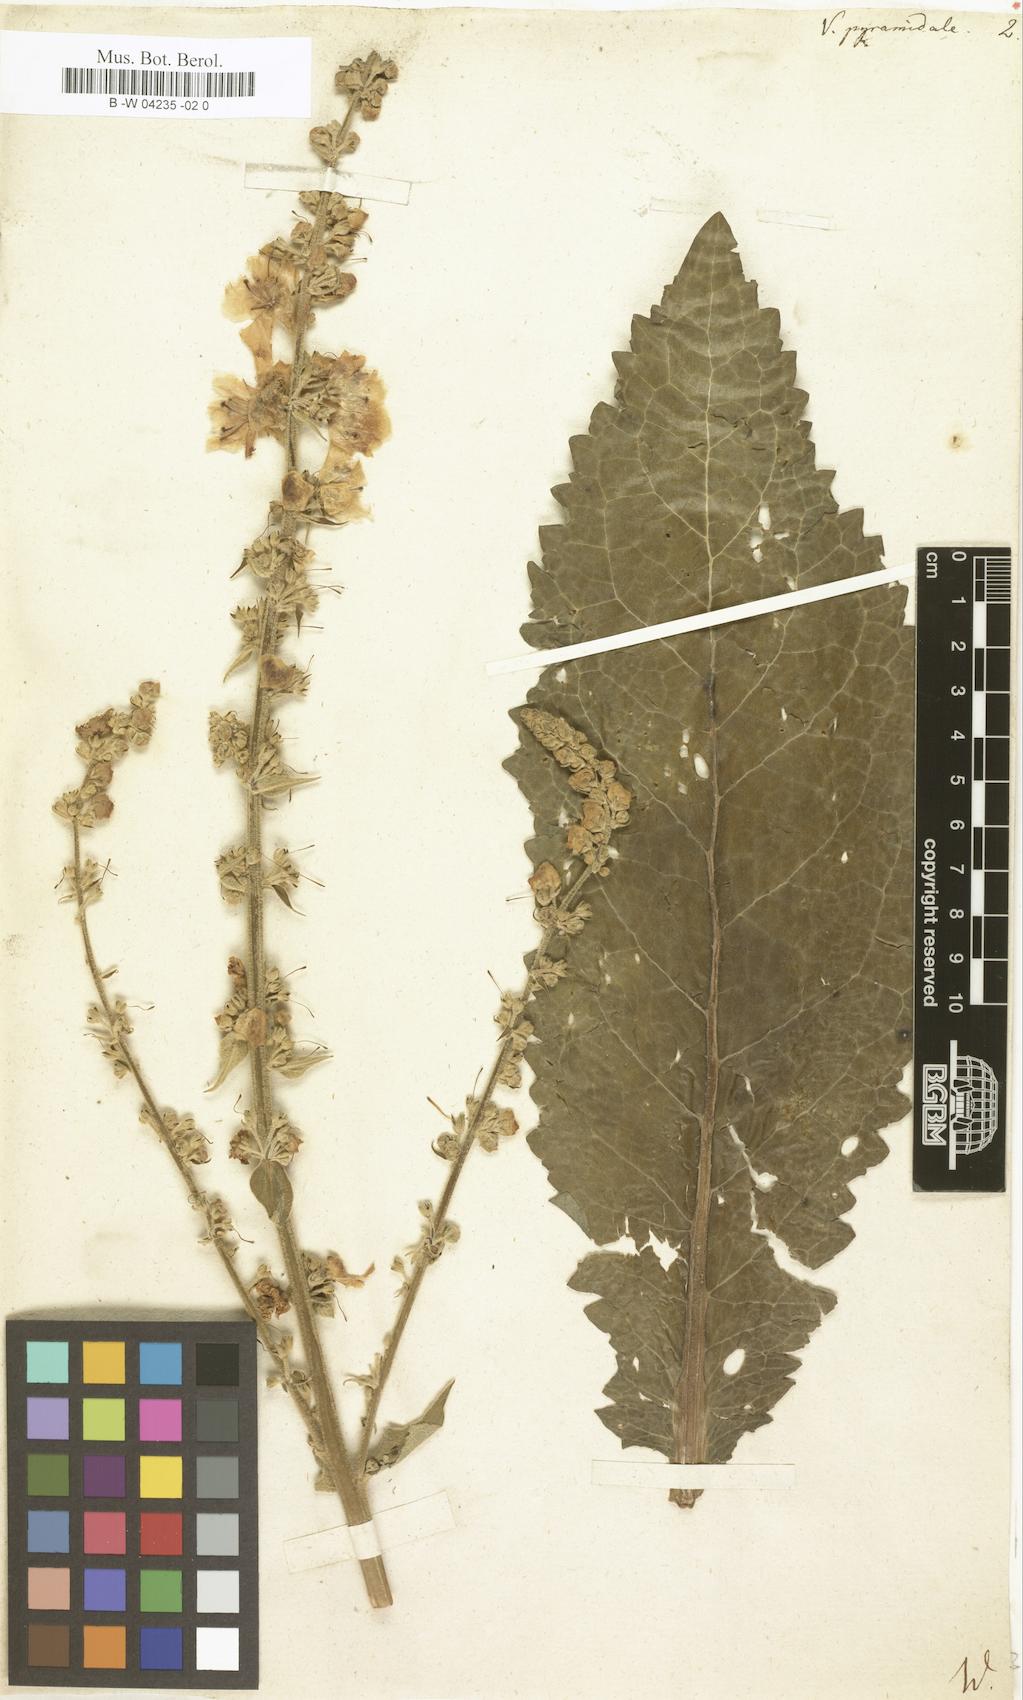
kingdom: Plantae
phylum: Tracheophyta
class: Magnoliopsida
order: Lamiales
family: Scrophulariaceae
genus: Verbascum
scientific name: Verbascum
